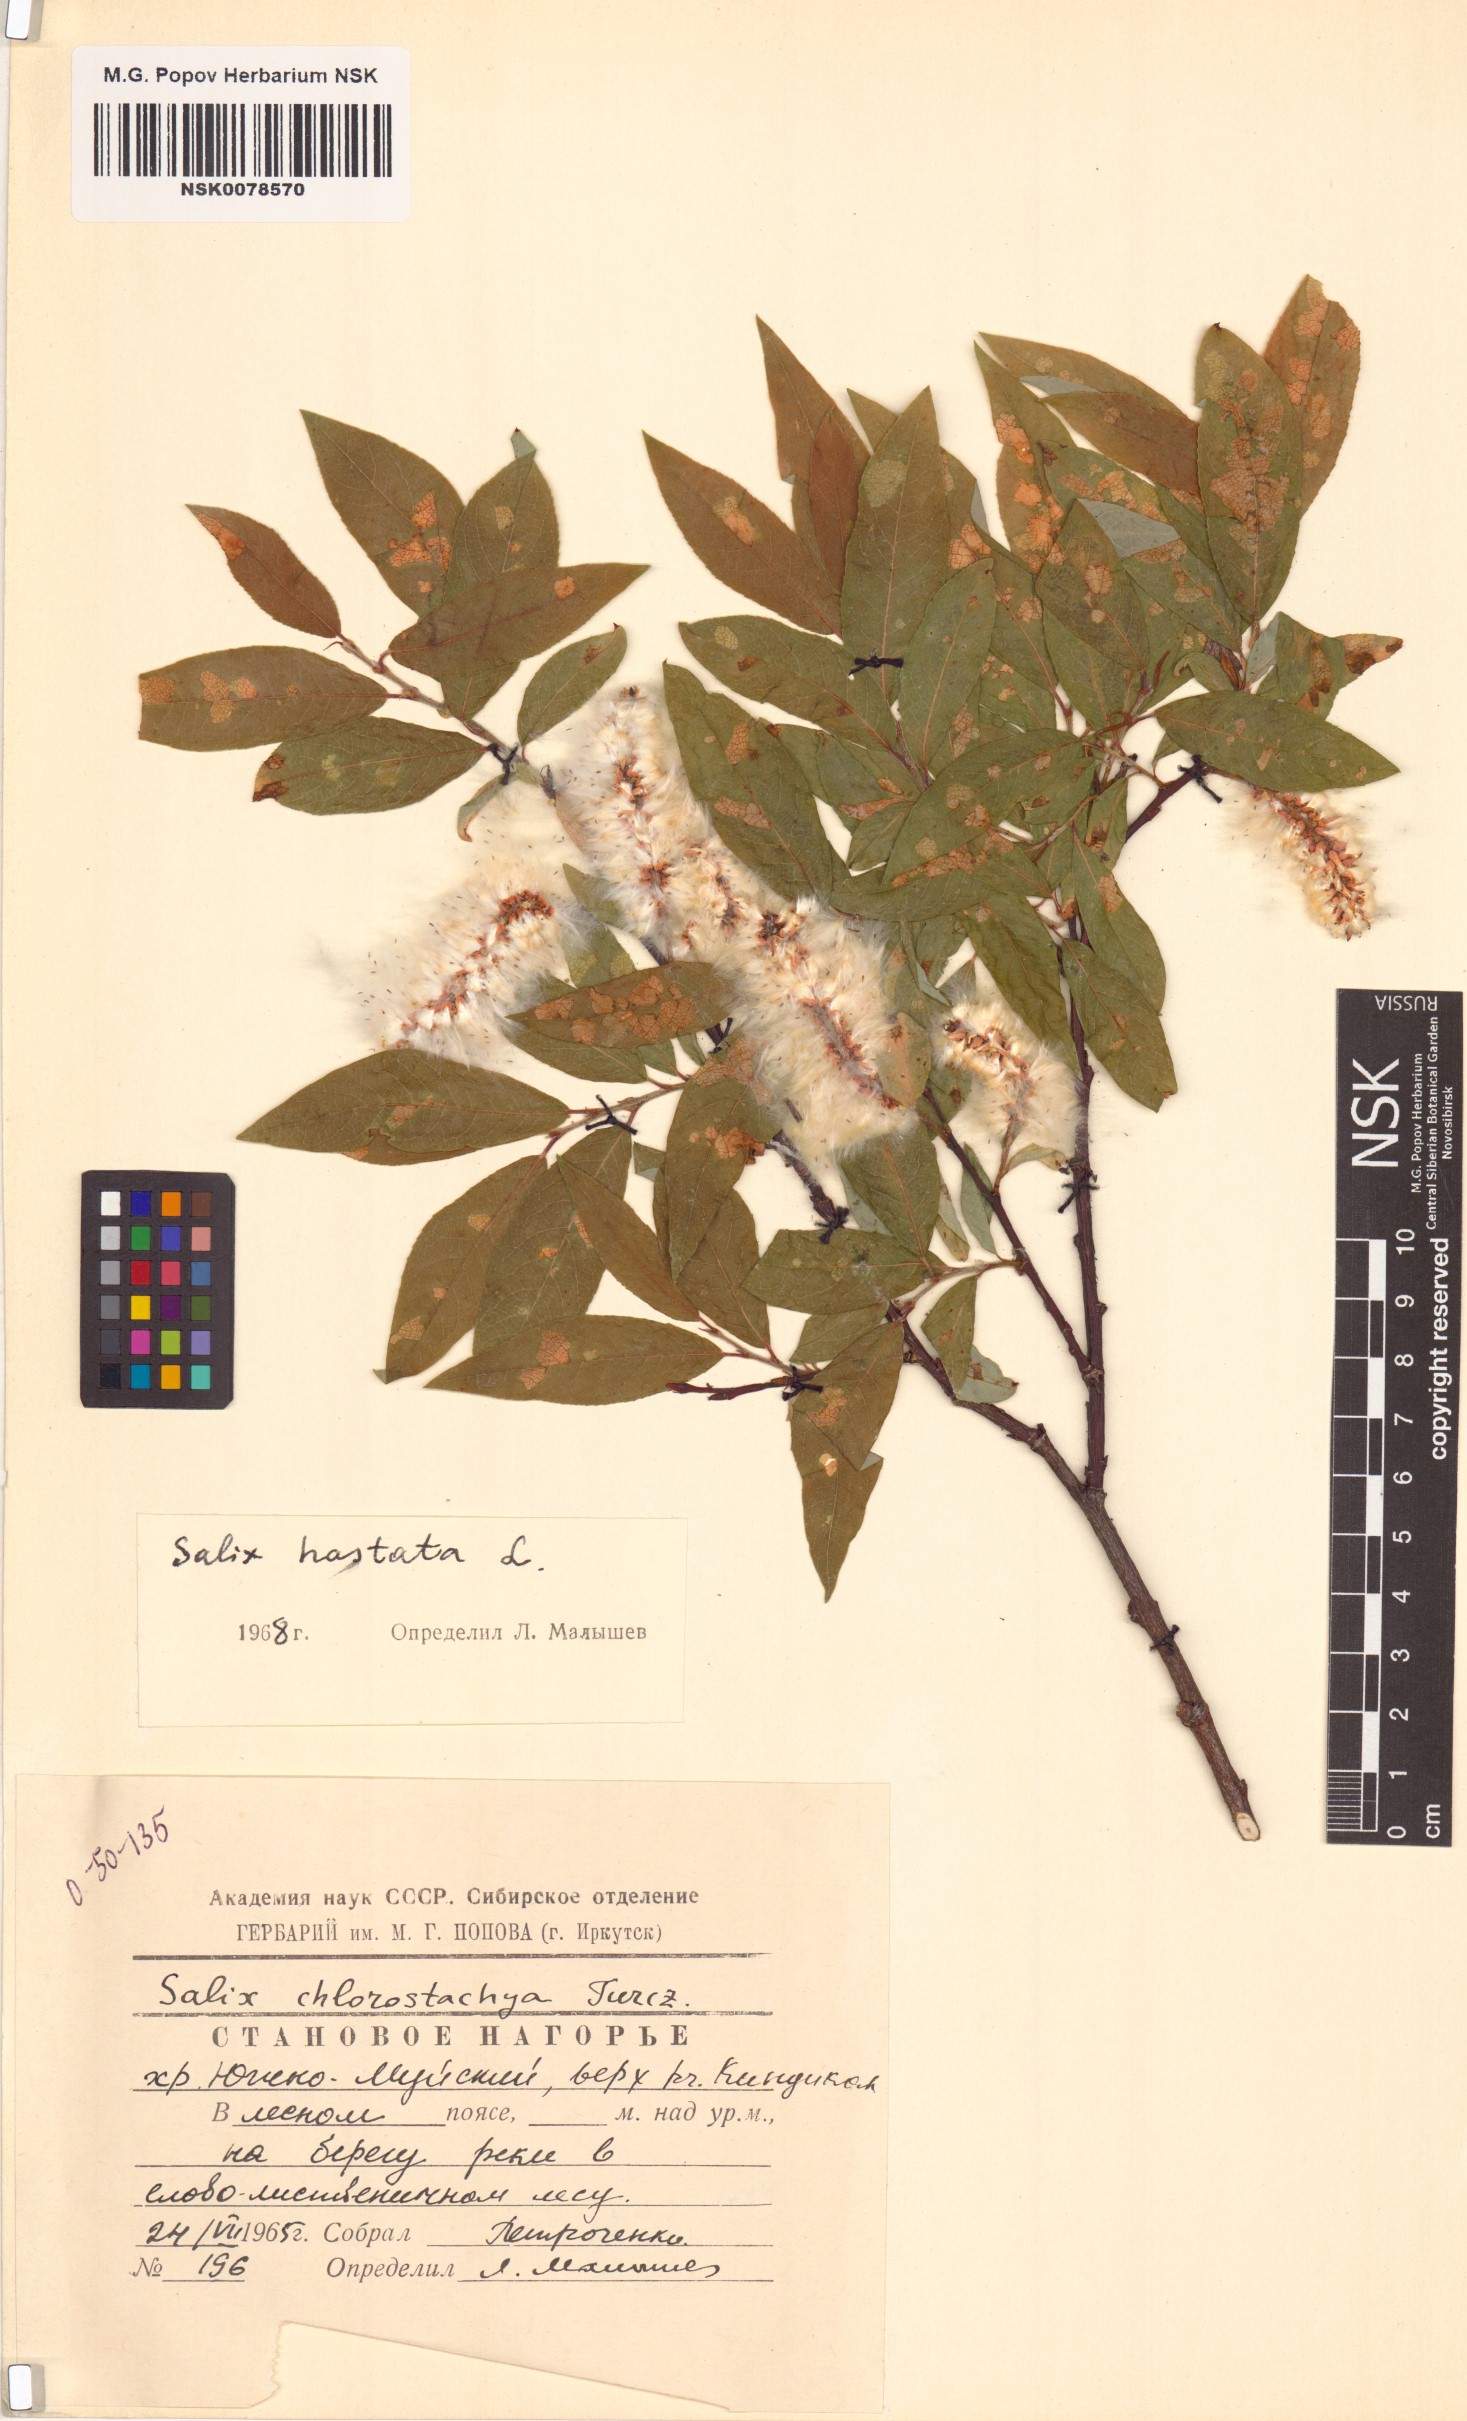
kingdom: Plantae
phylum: Tracheophyta
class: Magnoliopsida
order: Malpighiales
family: Salicaceae
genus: Salix
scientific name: Salix hastata
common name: Halberd willow
